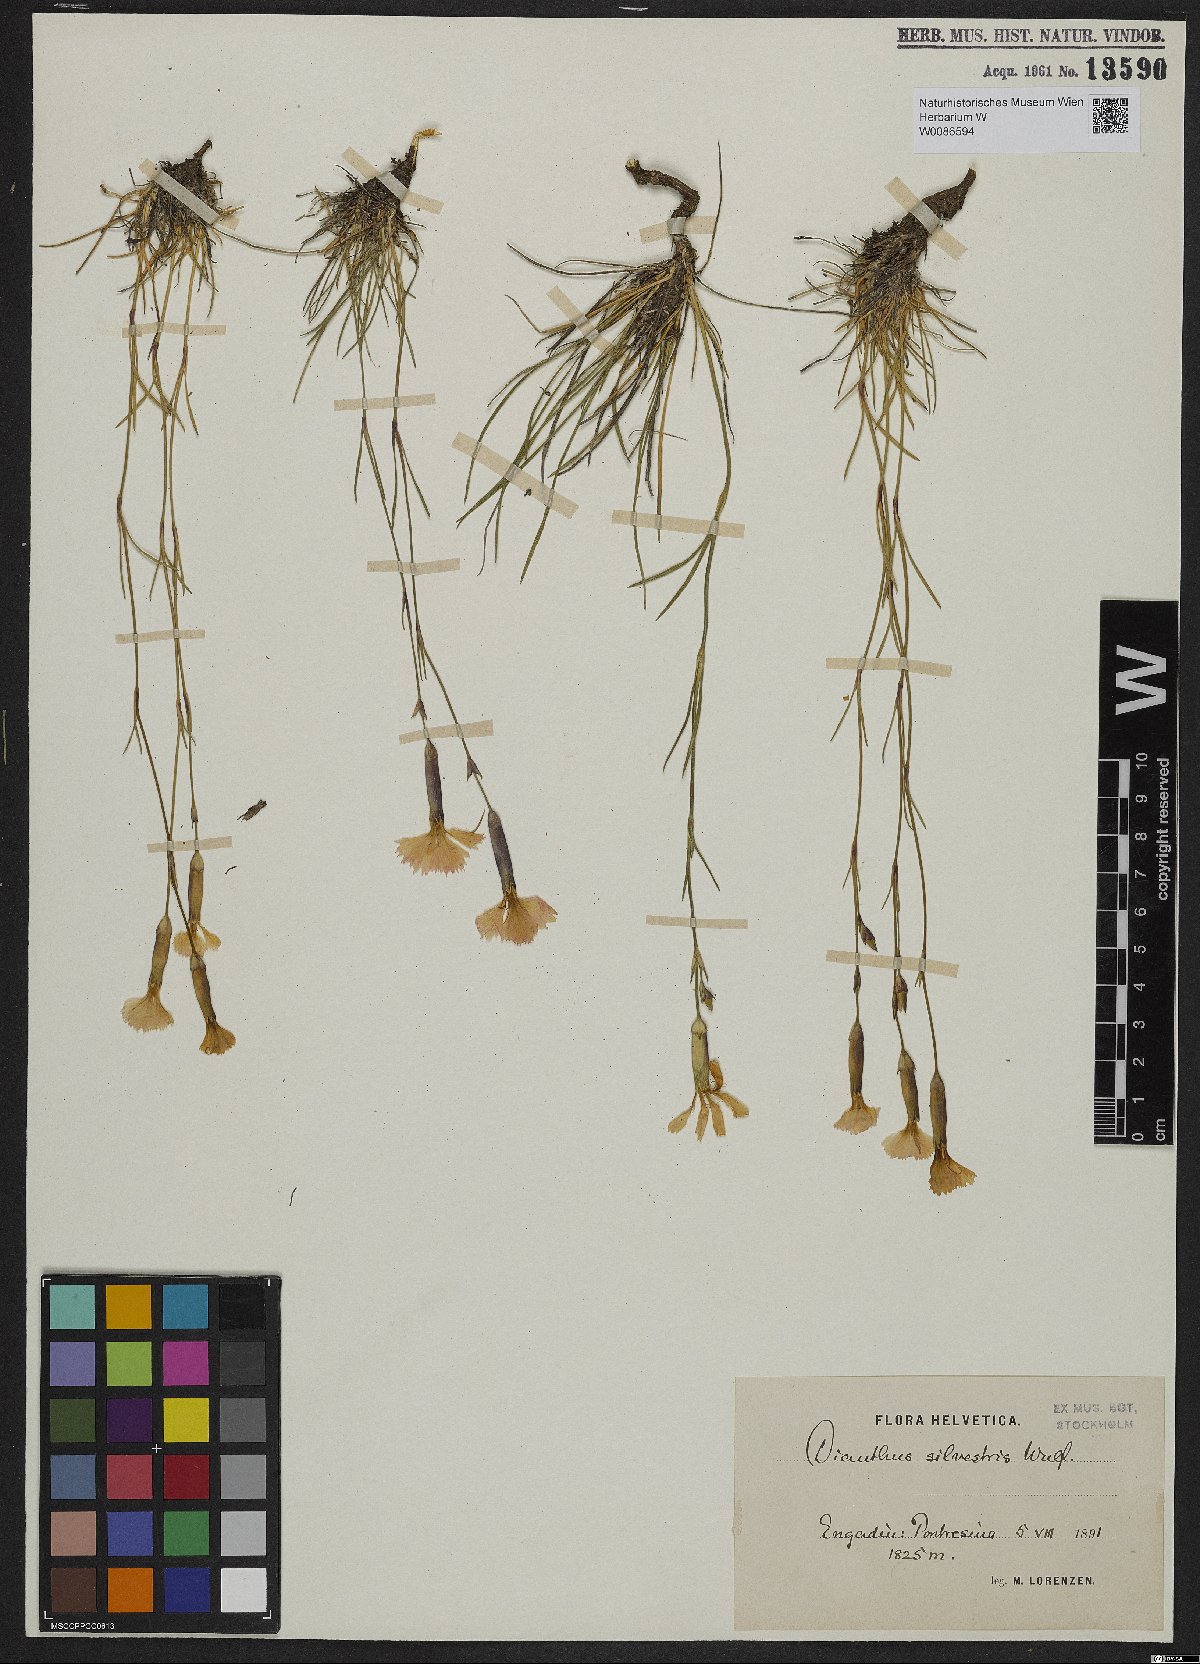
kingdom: Plantae
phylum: Tracheophyta
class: Magnoliopsida
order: Caryophyllales
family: Caryophyllaceae
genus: Dianthus
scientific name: Dianthus sylvestris
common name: Wood pink
